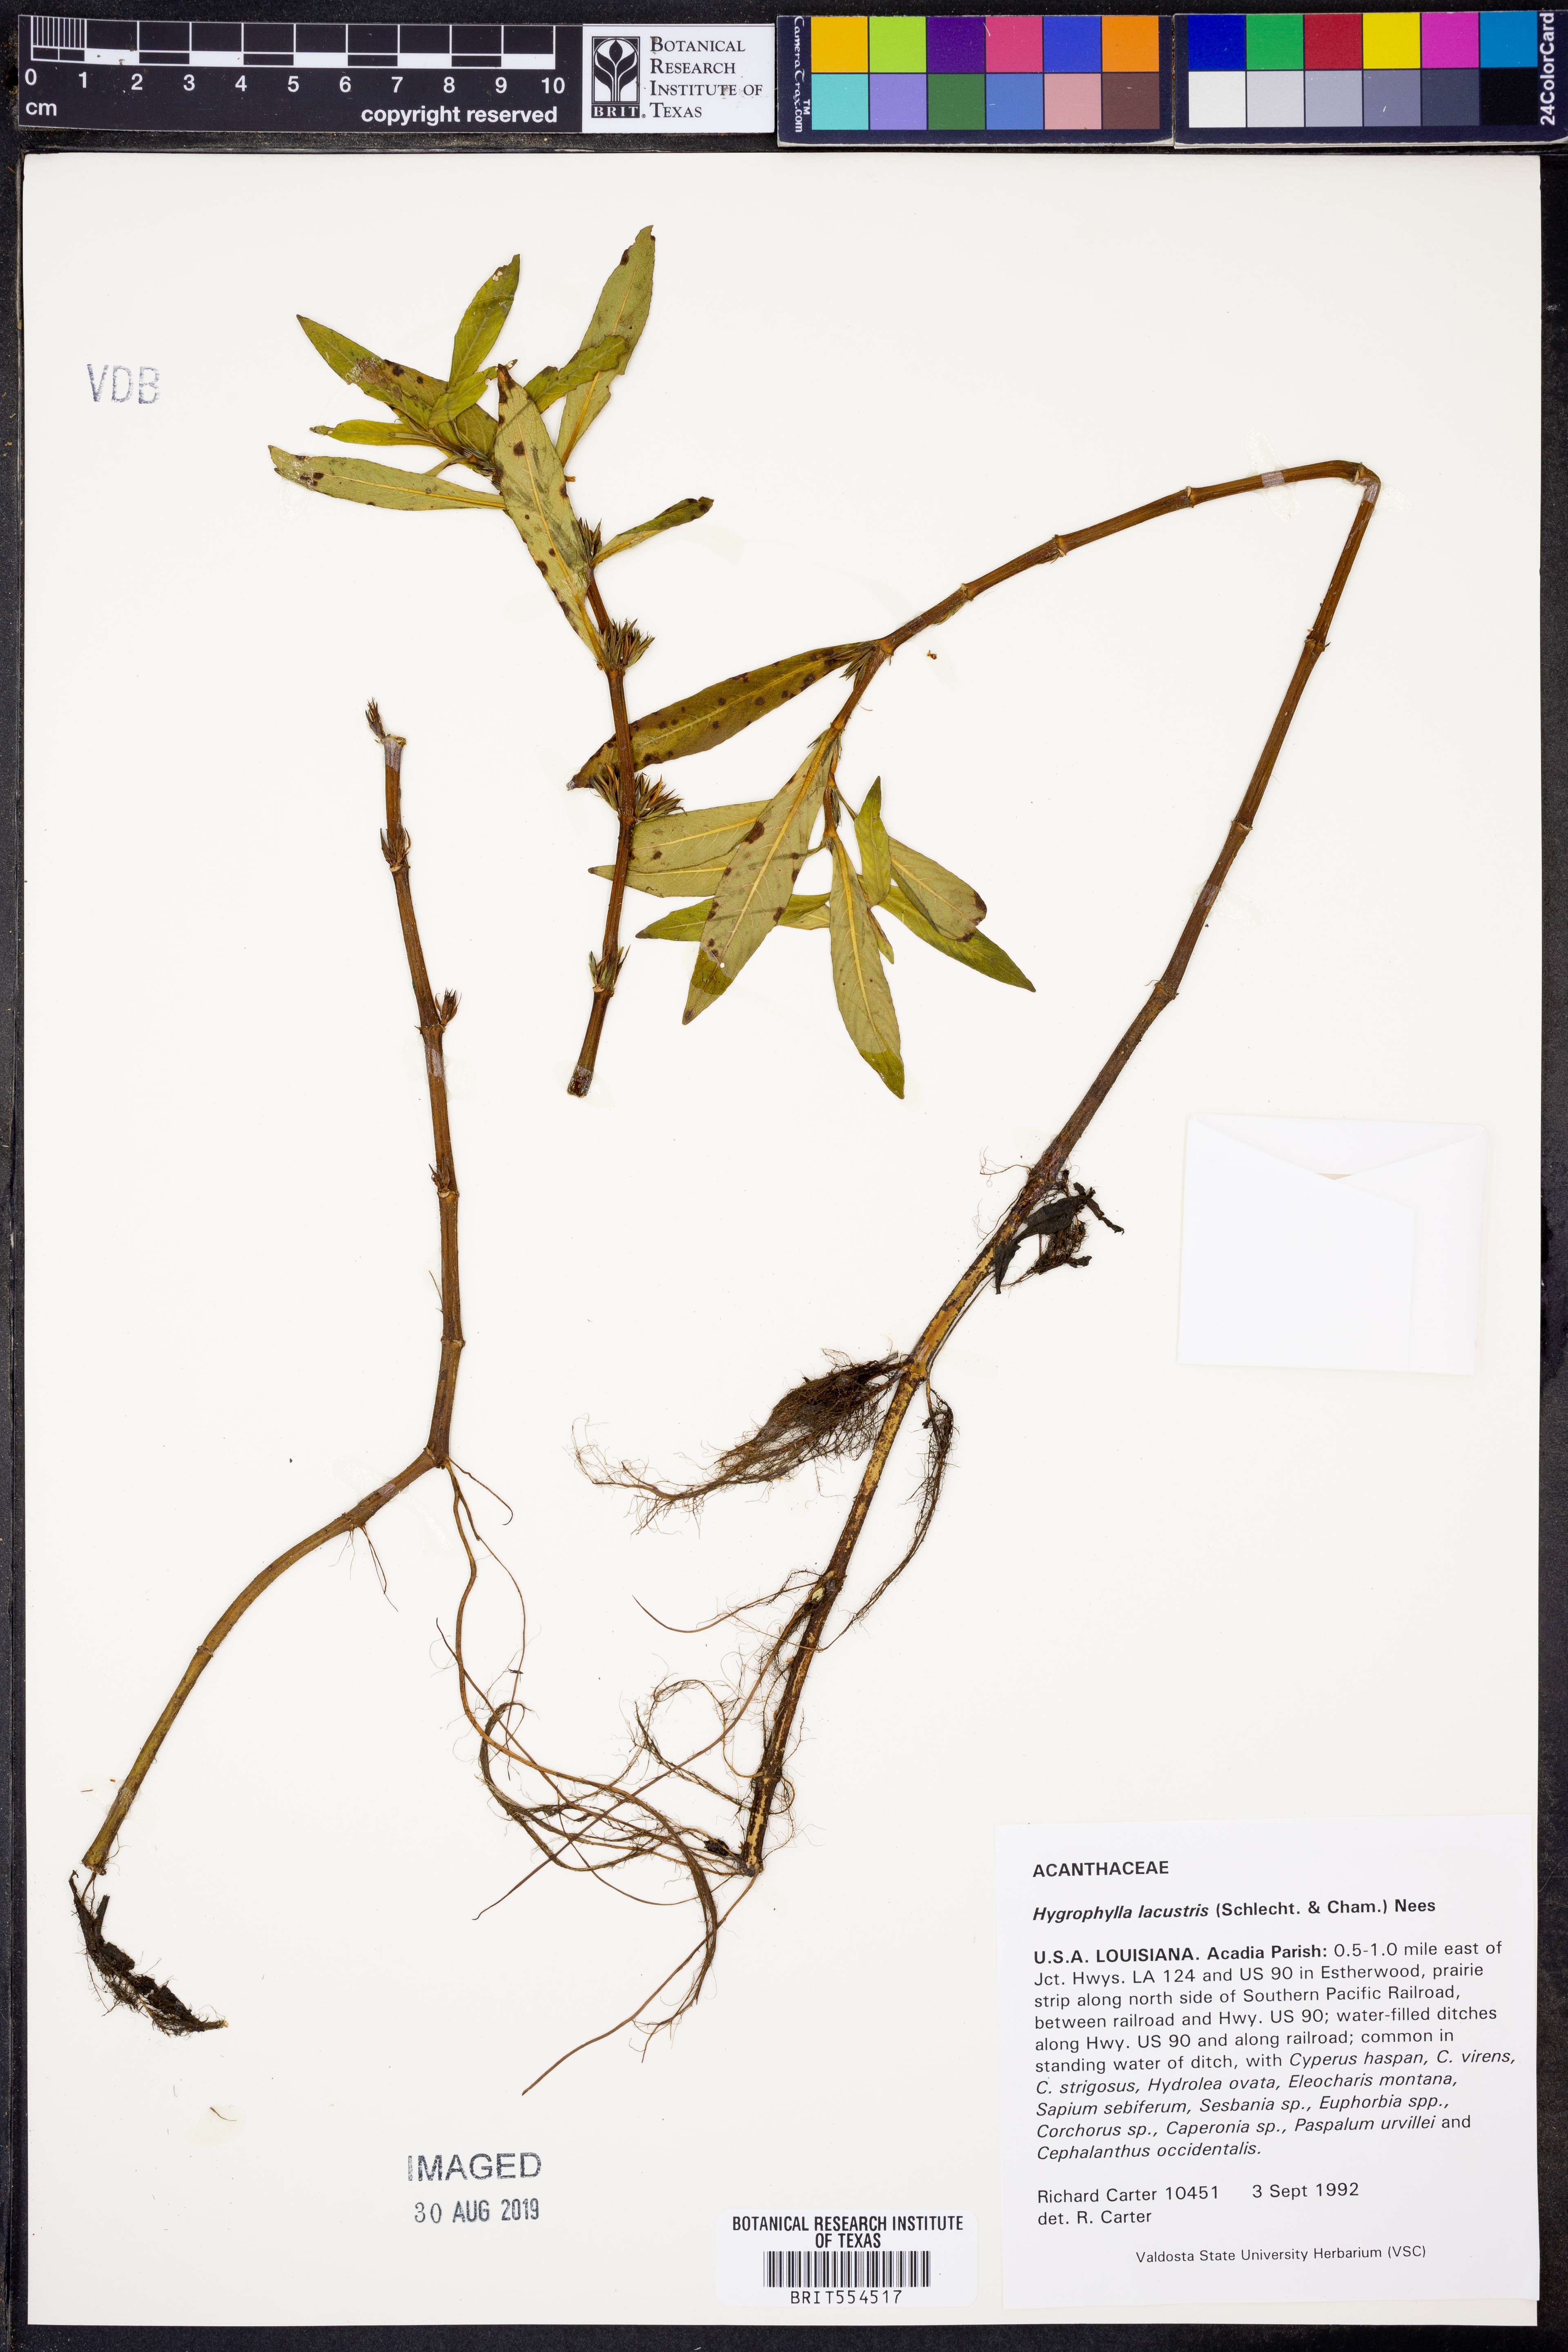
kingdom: Plantae
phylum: Tracheophyta
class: Magnoliopsida
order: Lamiales
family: Acanthaceae
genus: Hygrophila
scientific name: Hygrophila costata
